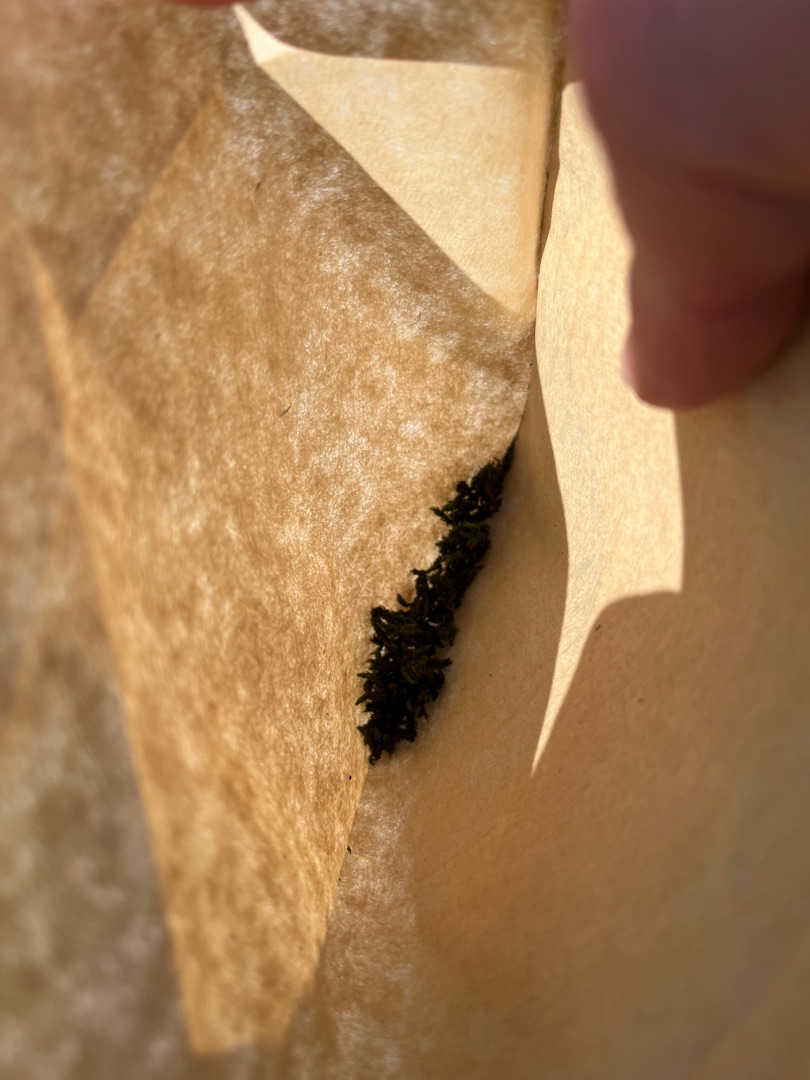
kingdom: Plantae
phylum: Bryophyta
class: Bryopsida
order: Orthotrichales
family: Orthotrichaceae
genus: Lewinskya
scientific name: Lewinskya affinis
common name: Almindelig furehætte
